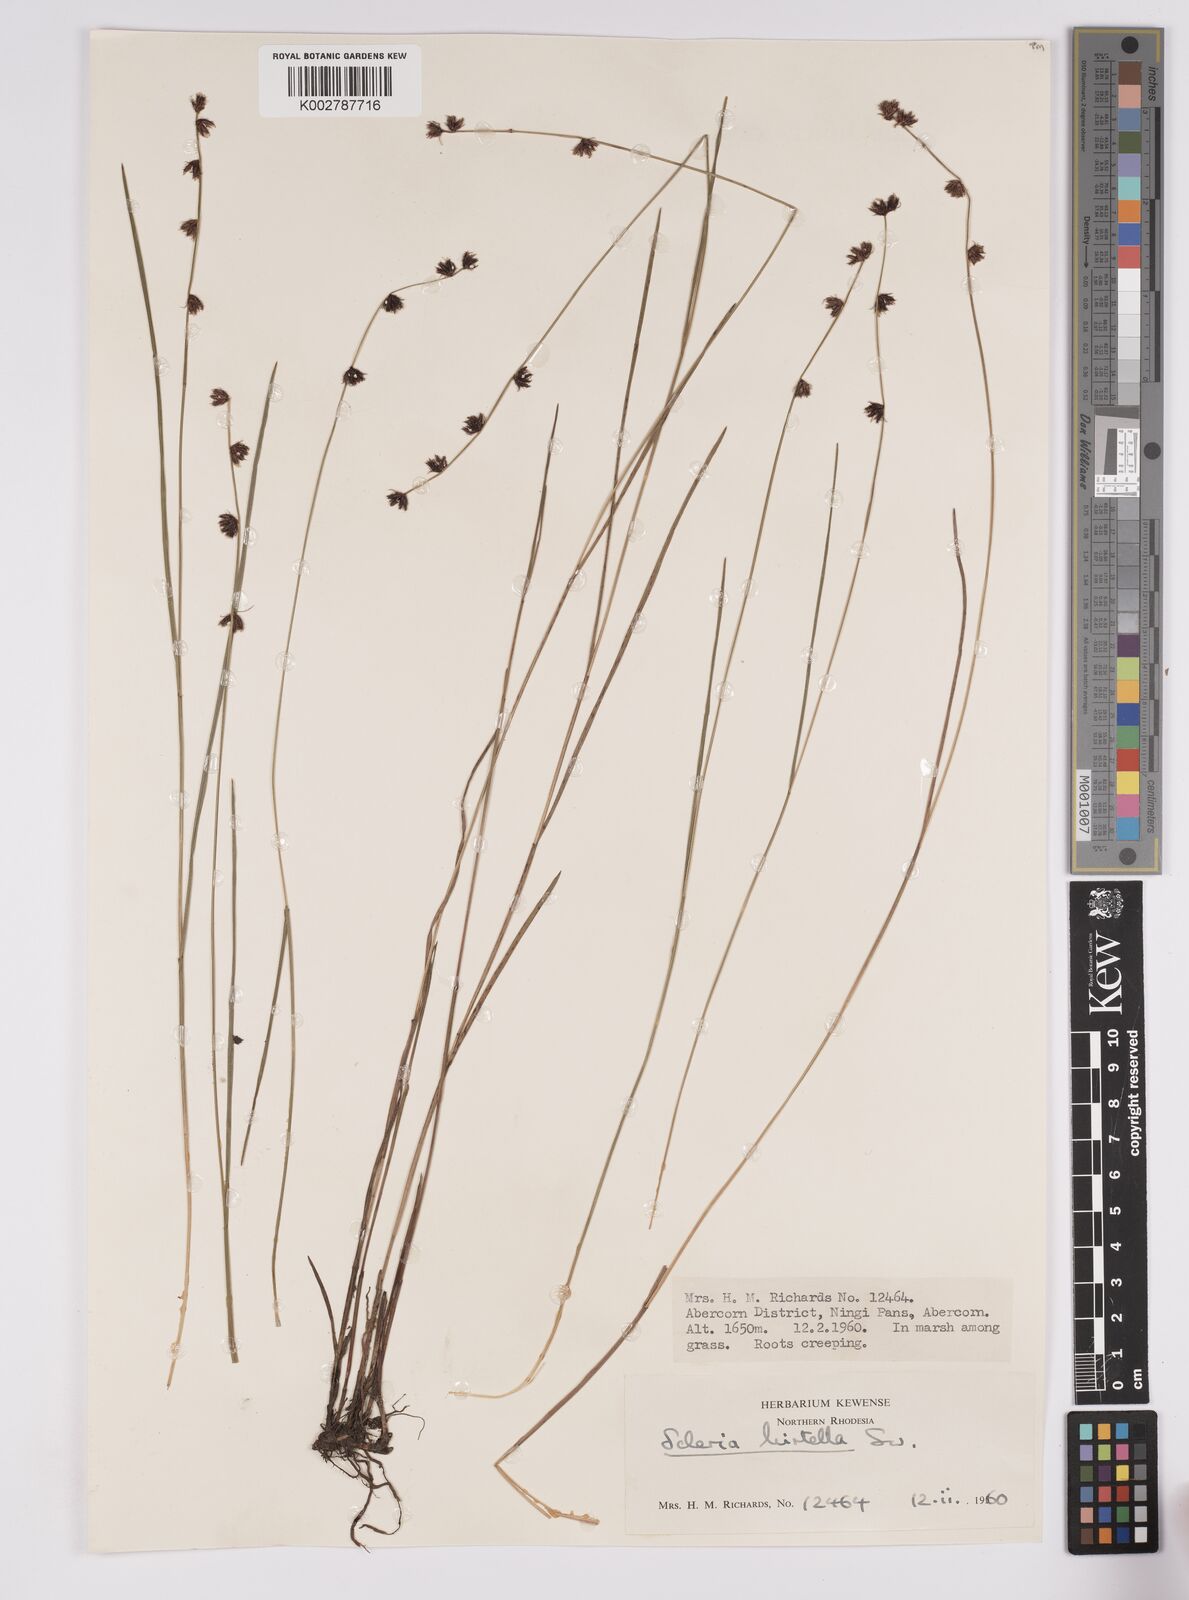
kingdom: Plantae
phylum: Tracheophyta
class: Liliopsida
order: Poales
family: Cyperaceae
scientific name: Cyperaceae
